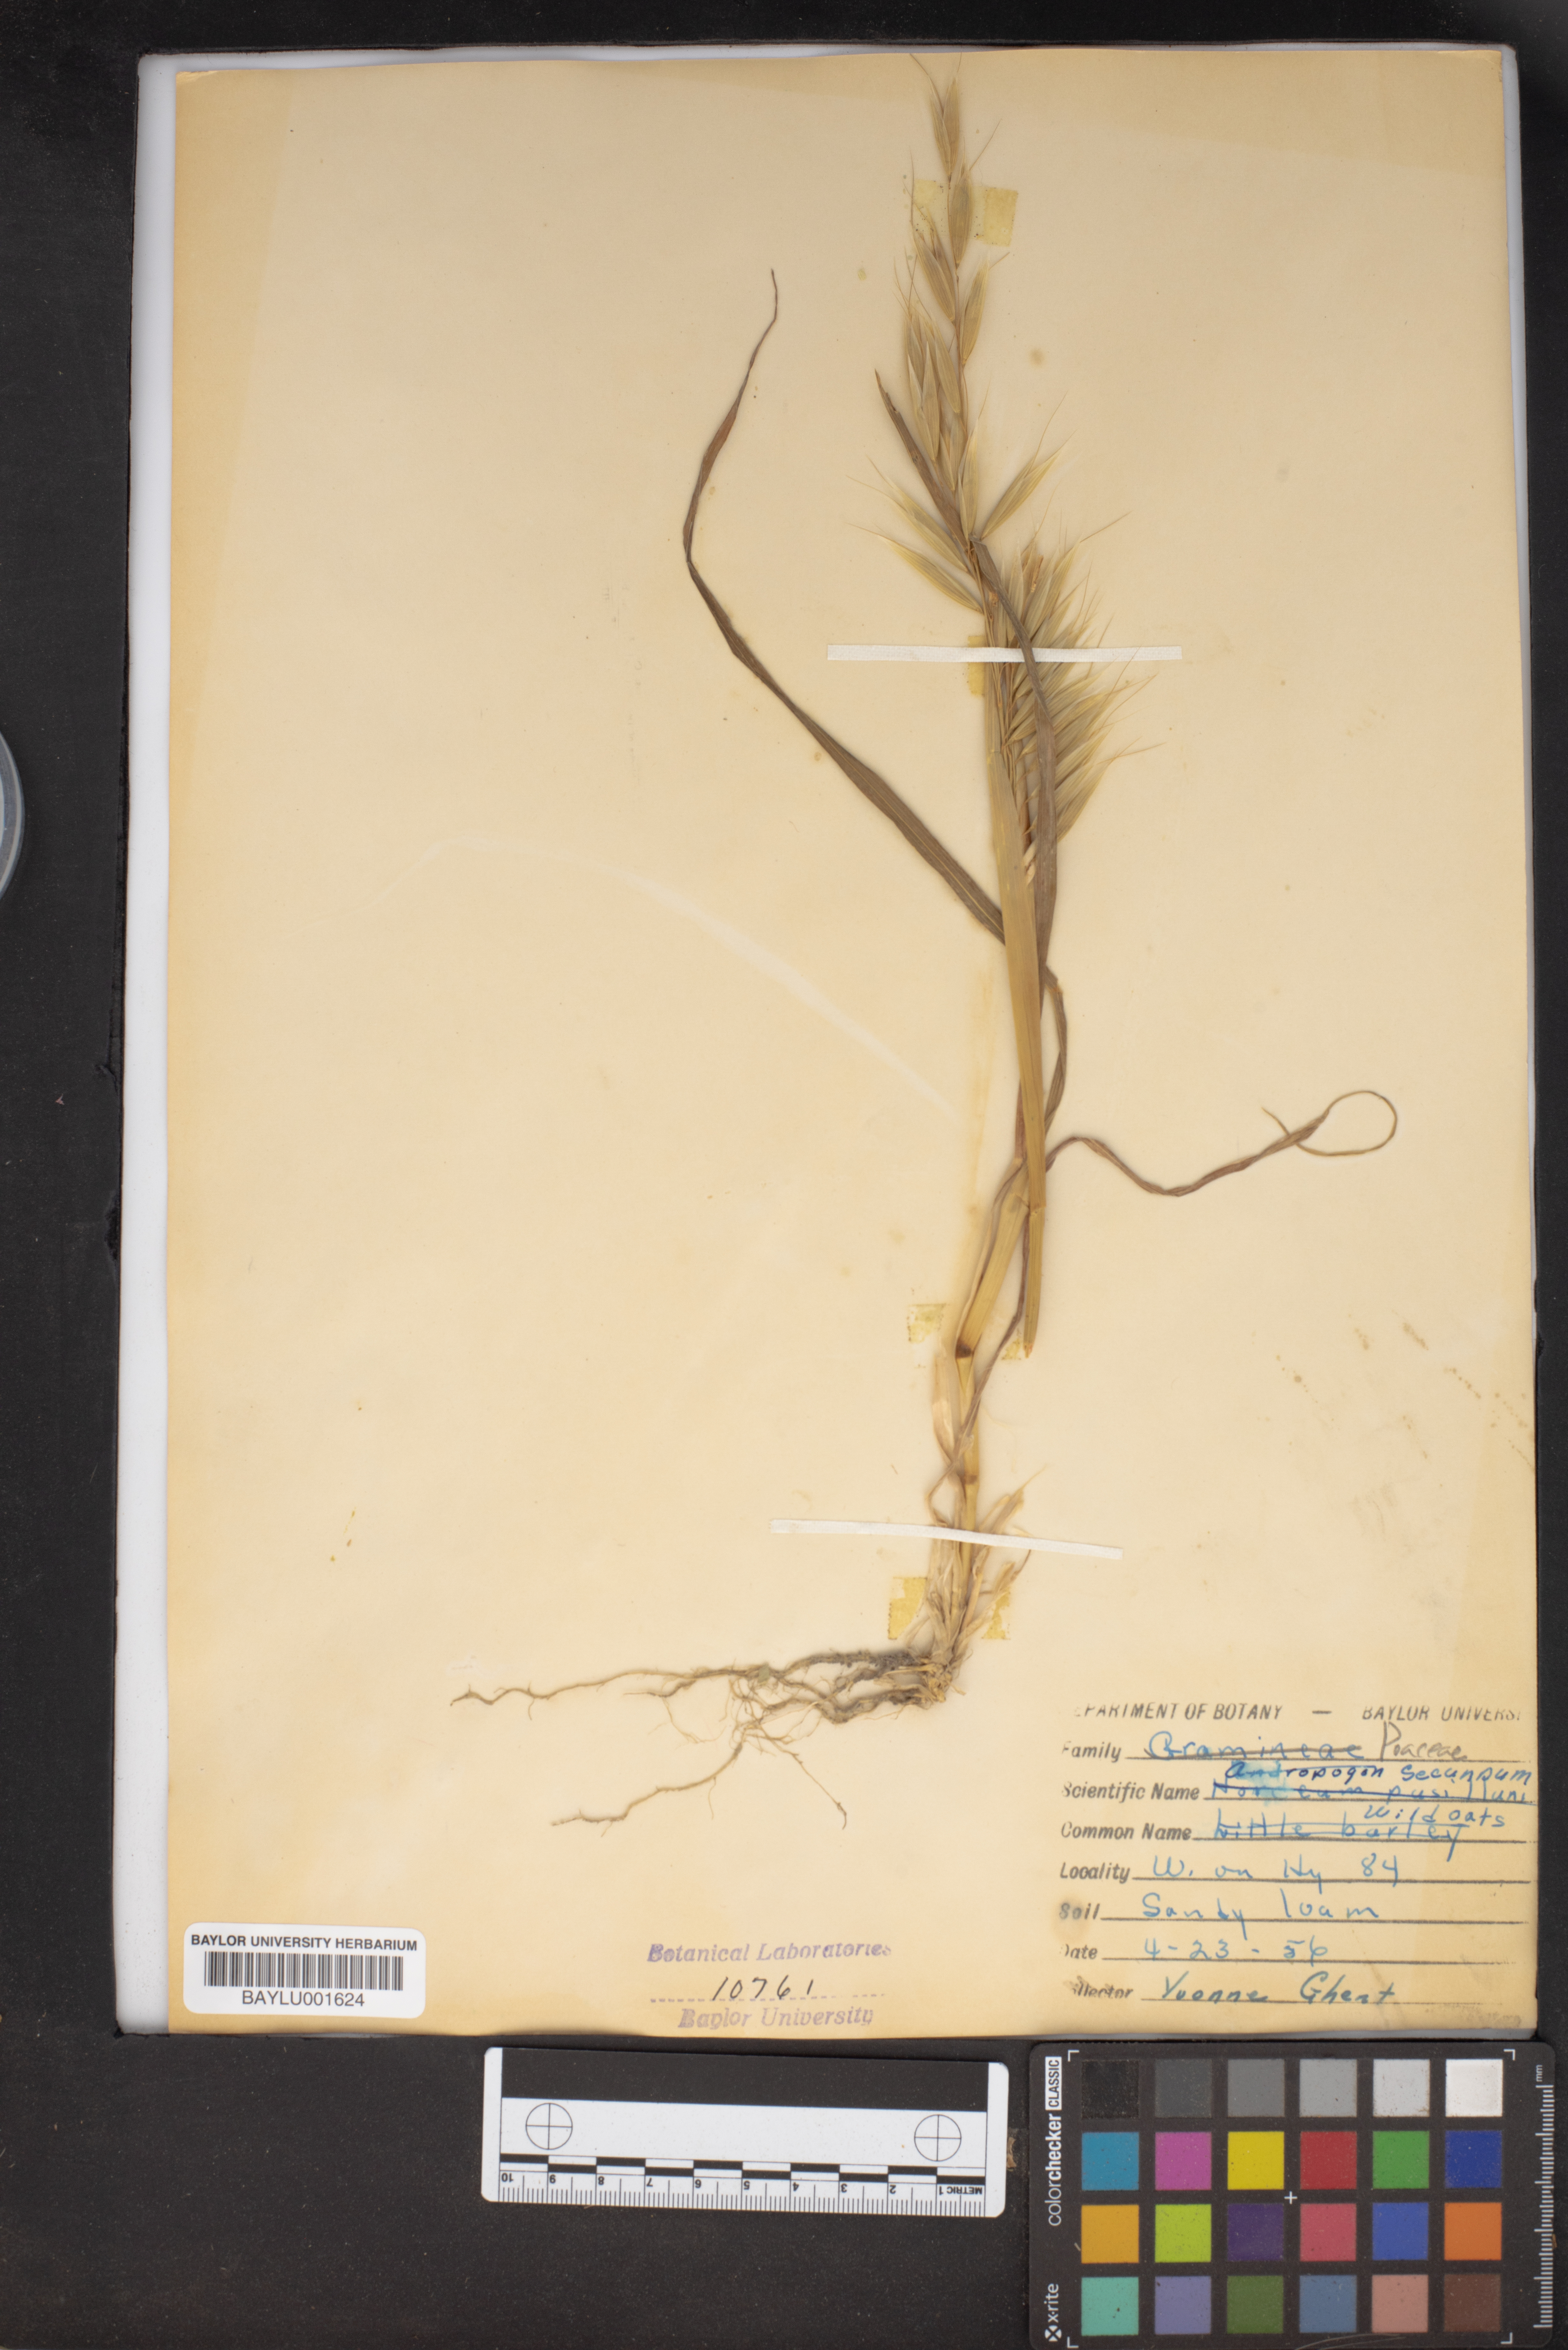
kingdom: Plantae
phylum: Tracheophyta
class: Liliopsida
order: Poales
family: Poaceae
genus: Sorghastrum
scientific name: Sorghastrum secundum
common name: Lopsided indian grass
